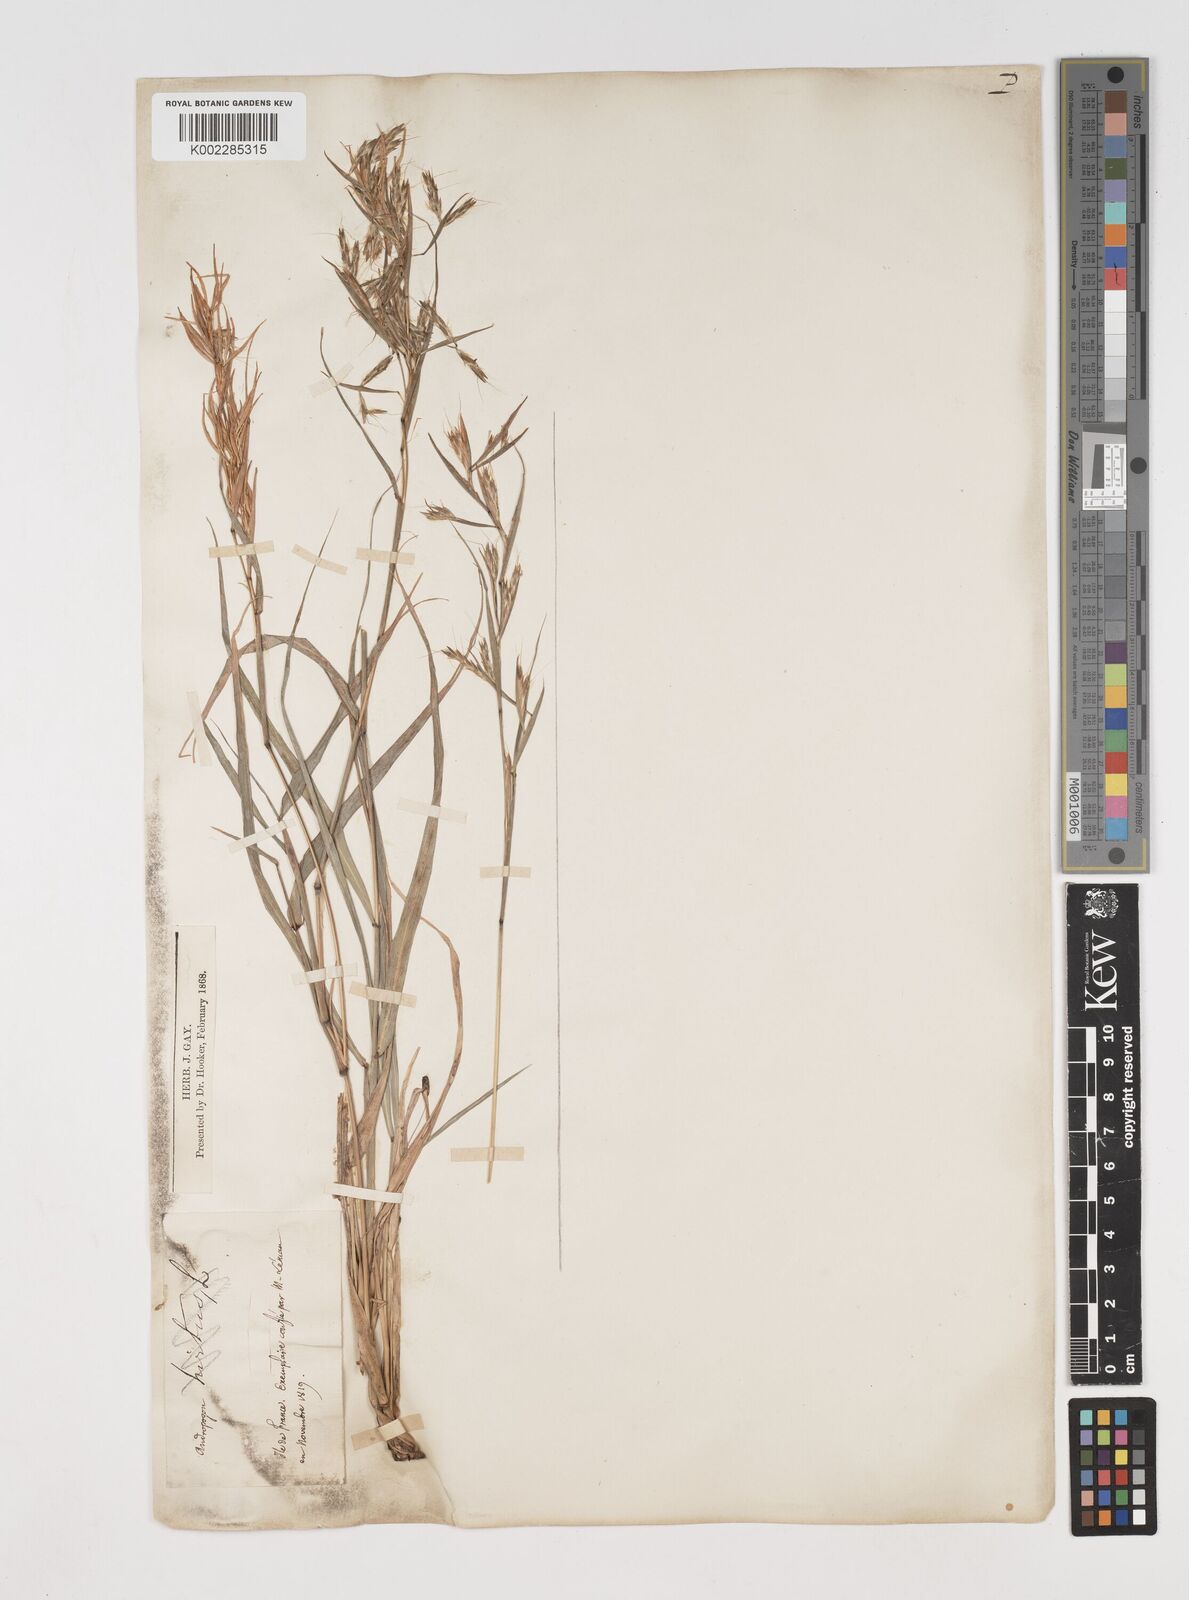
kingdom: Plantae
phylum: Tracheophyta
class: Liliopsida
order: Poales
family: Poaceae
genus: Cymbopogon
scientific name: Cymbopogon pruinosus
